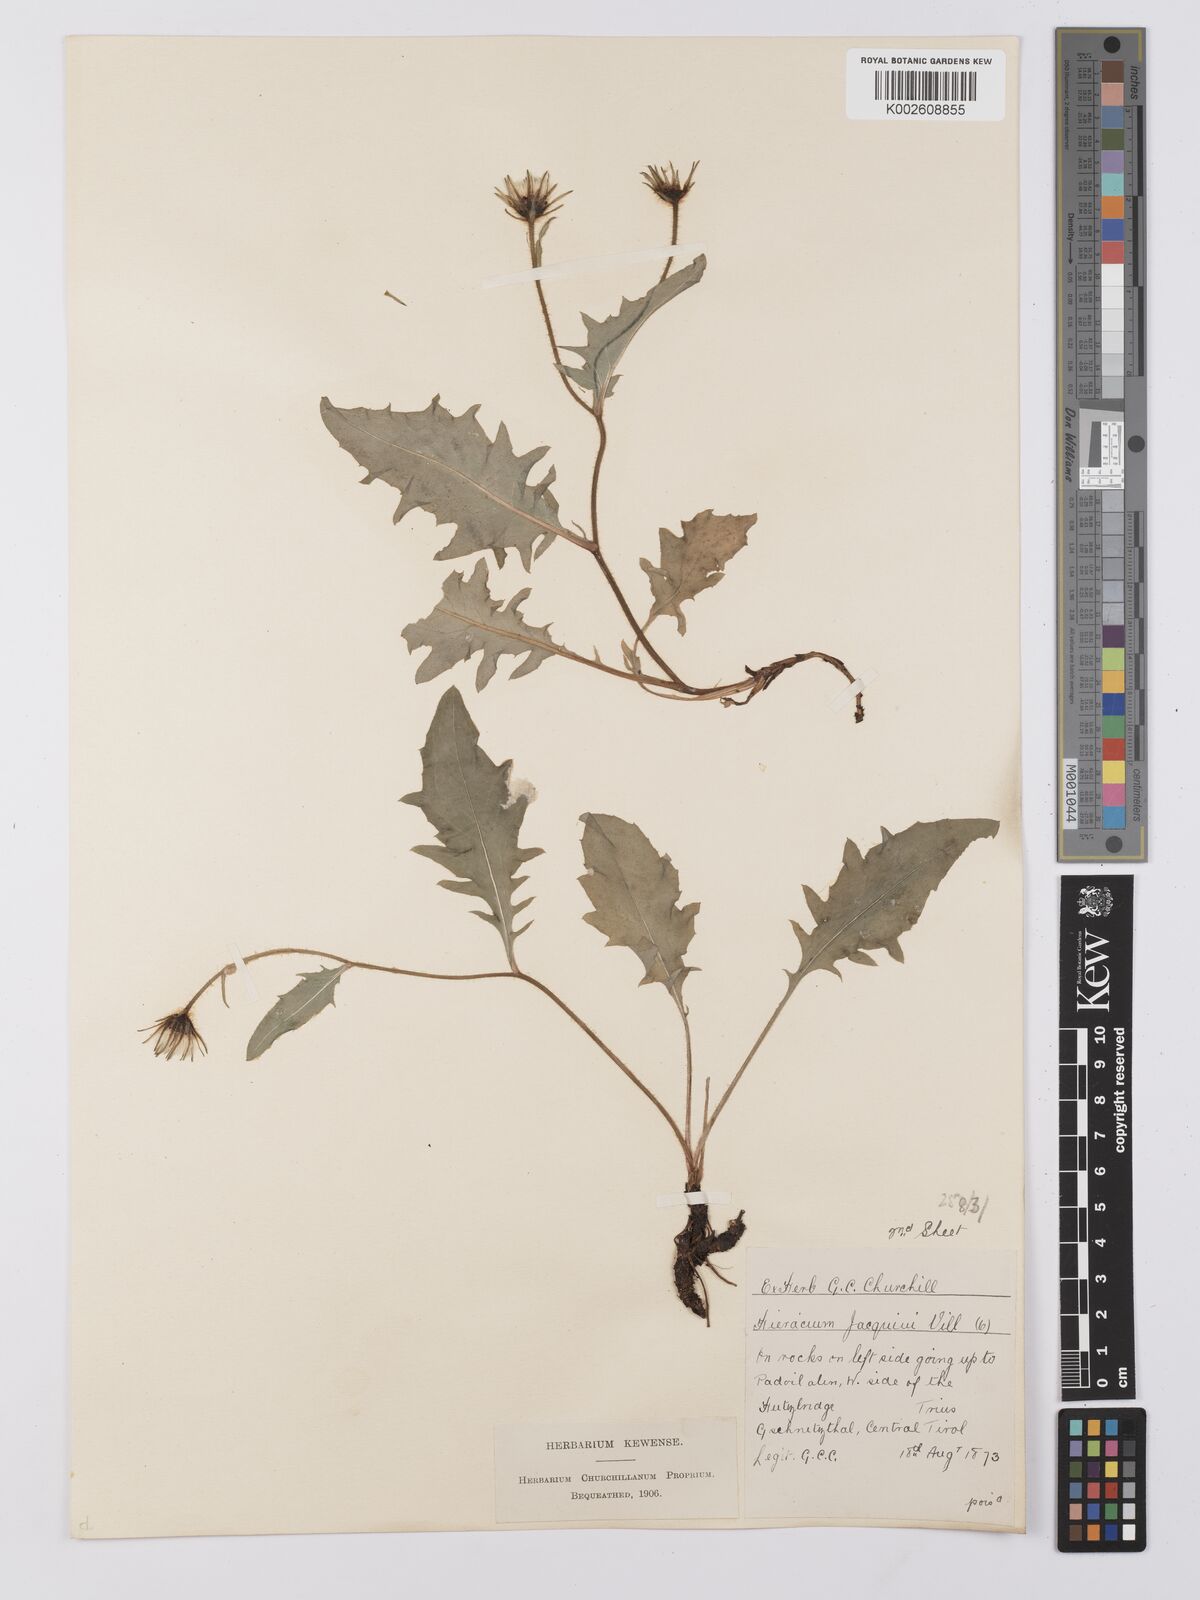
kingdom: Plantae
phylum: Tracheophyta
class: Magnoliopsida
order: Asterales
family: Asteraceae
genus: Hieracium
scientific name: Hieracium valoddae
